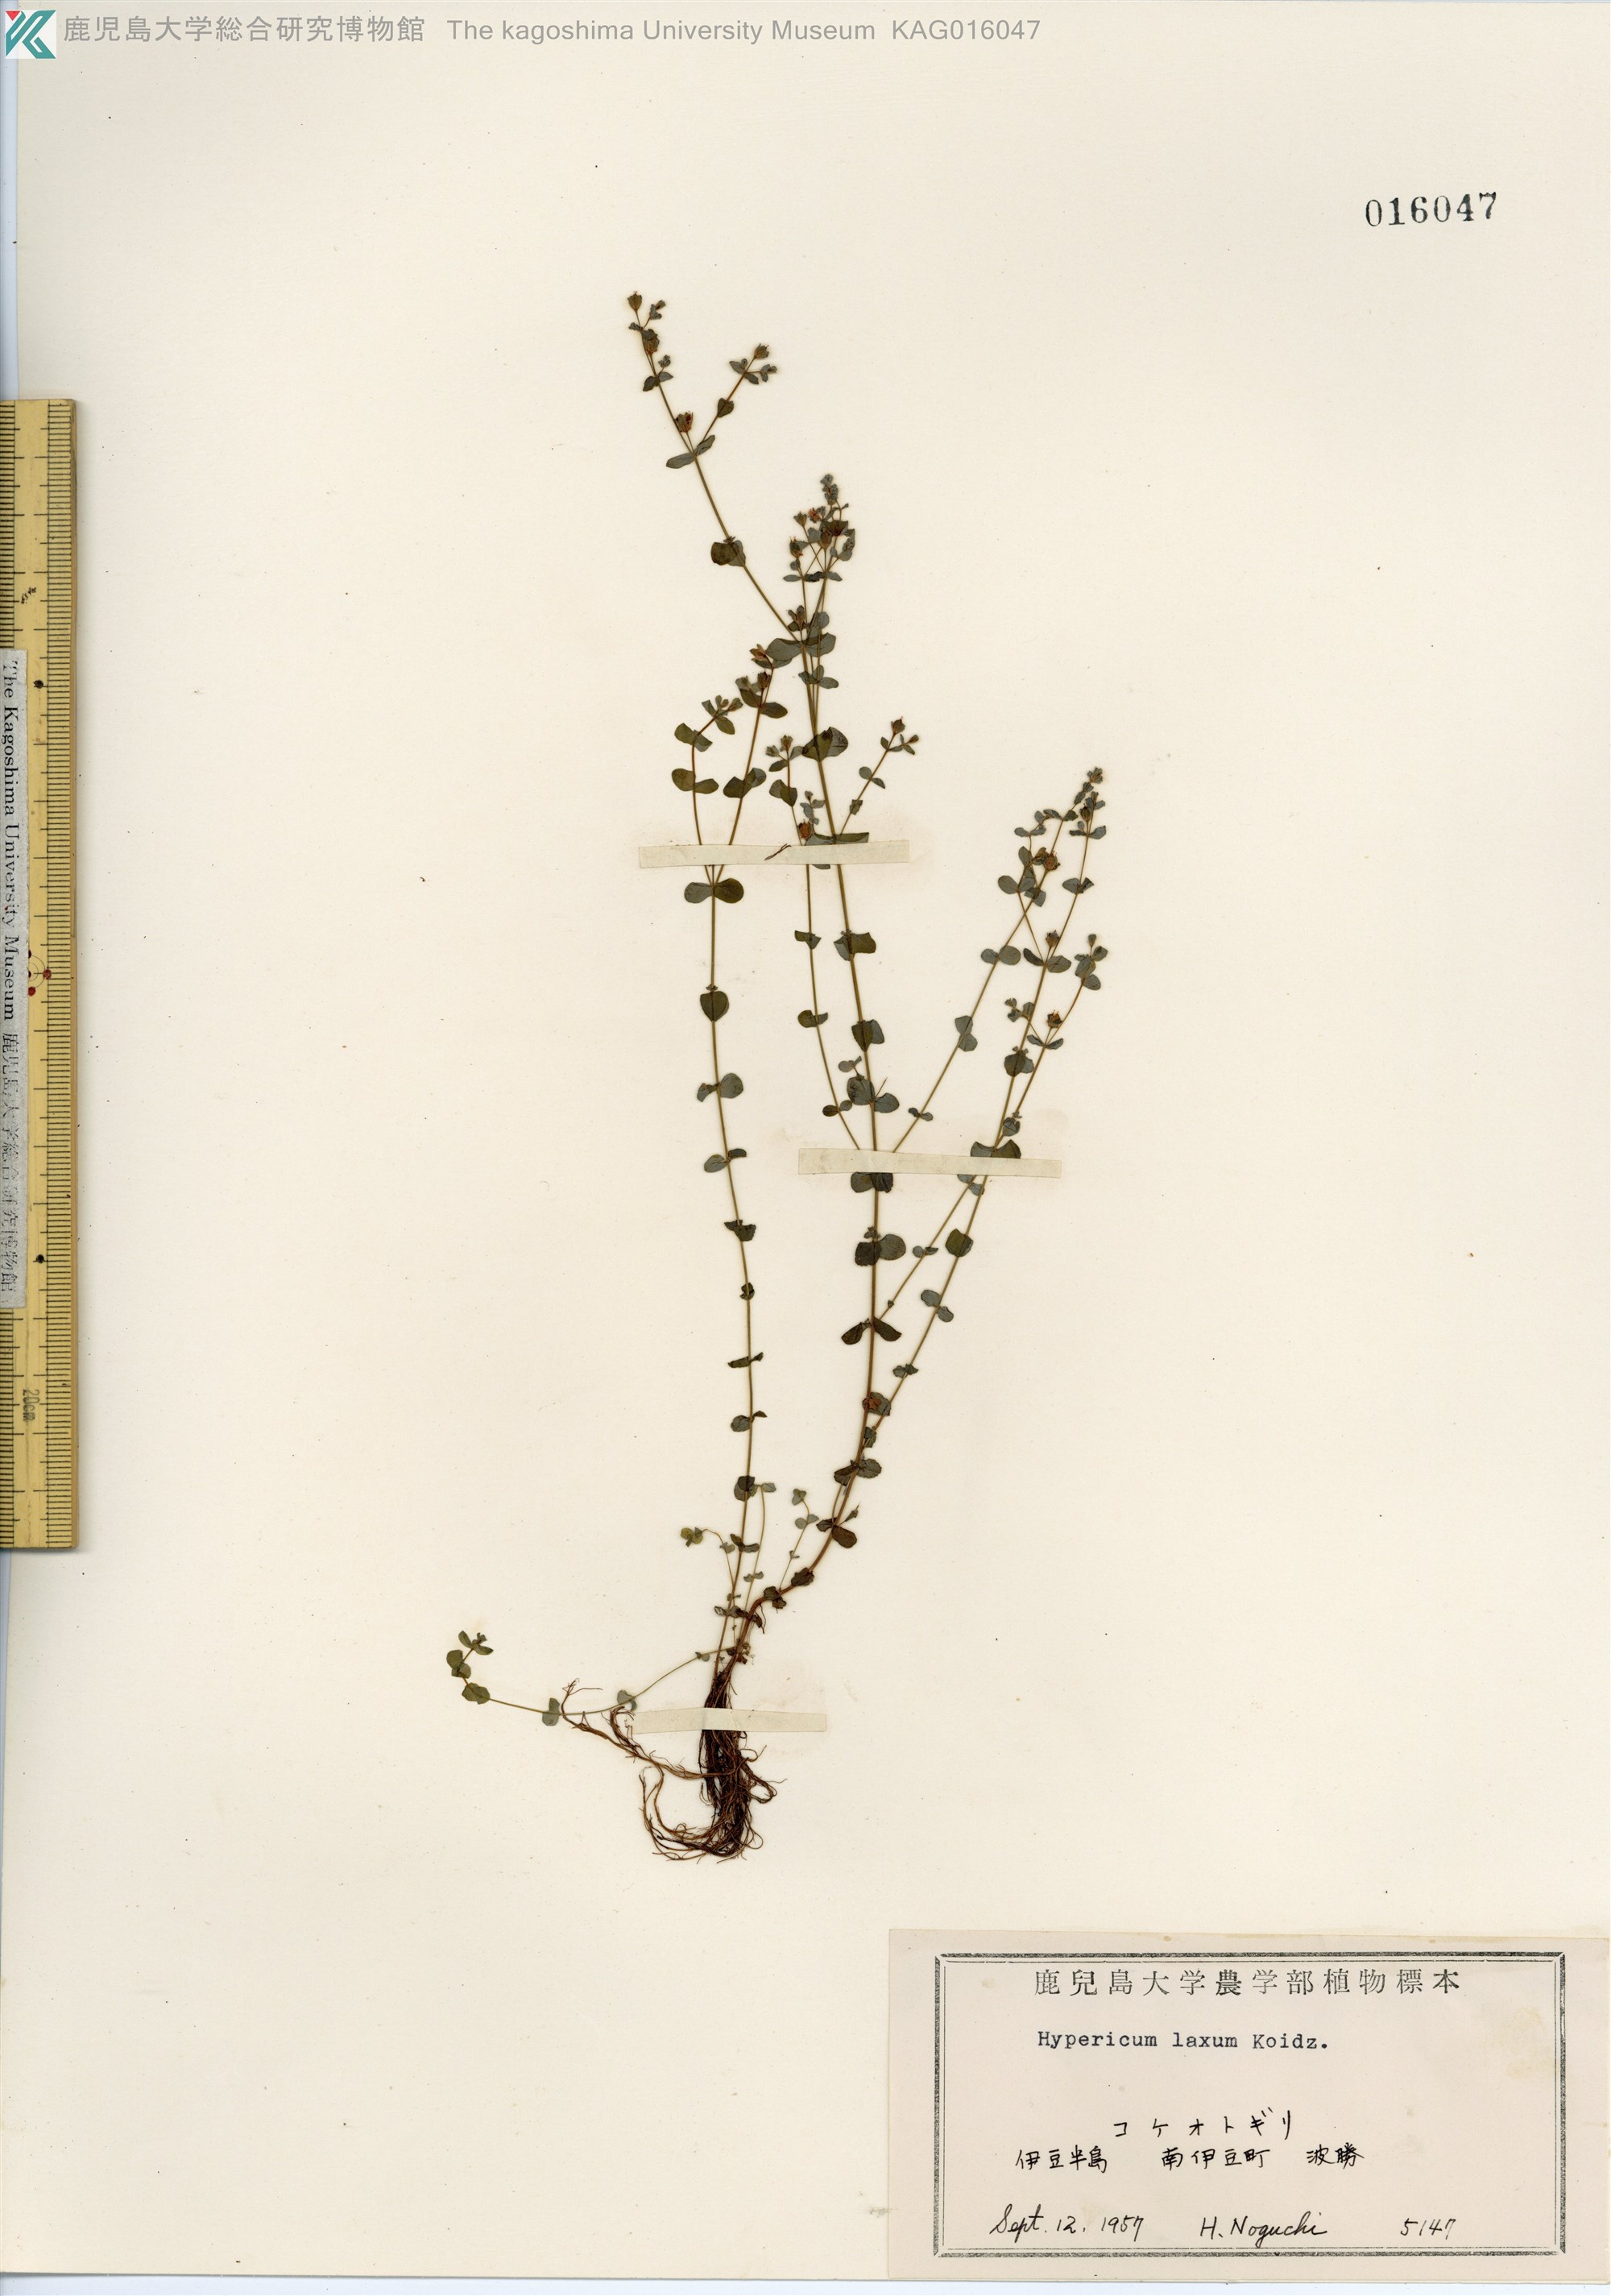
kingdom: Plantae
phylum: Tracheophyta
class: Magnoliopsida
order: Malpighiales
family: Hypericaceae
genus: Hypericum
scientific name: Hypericum japonicum
